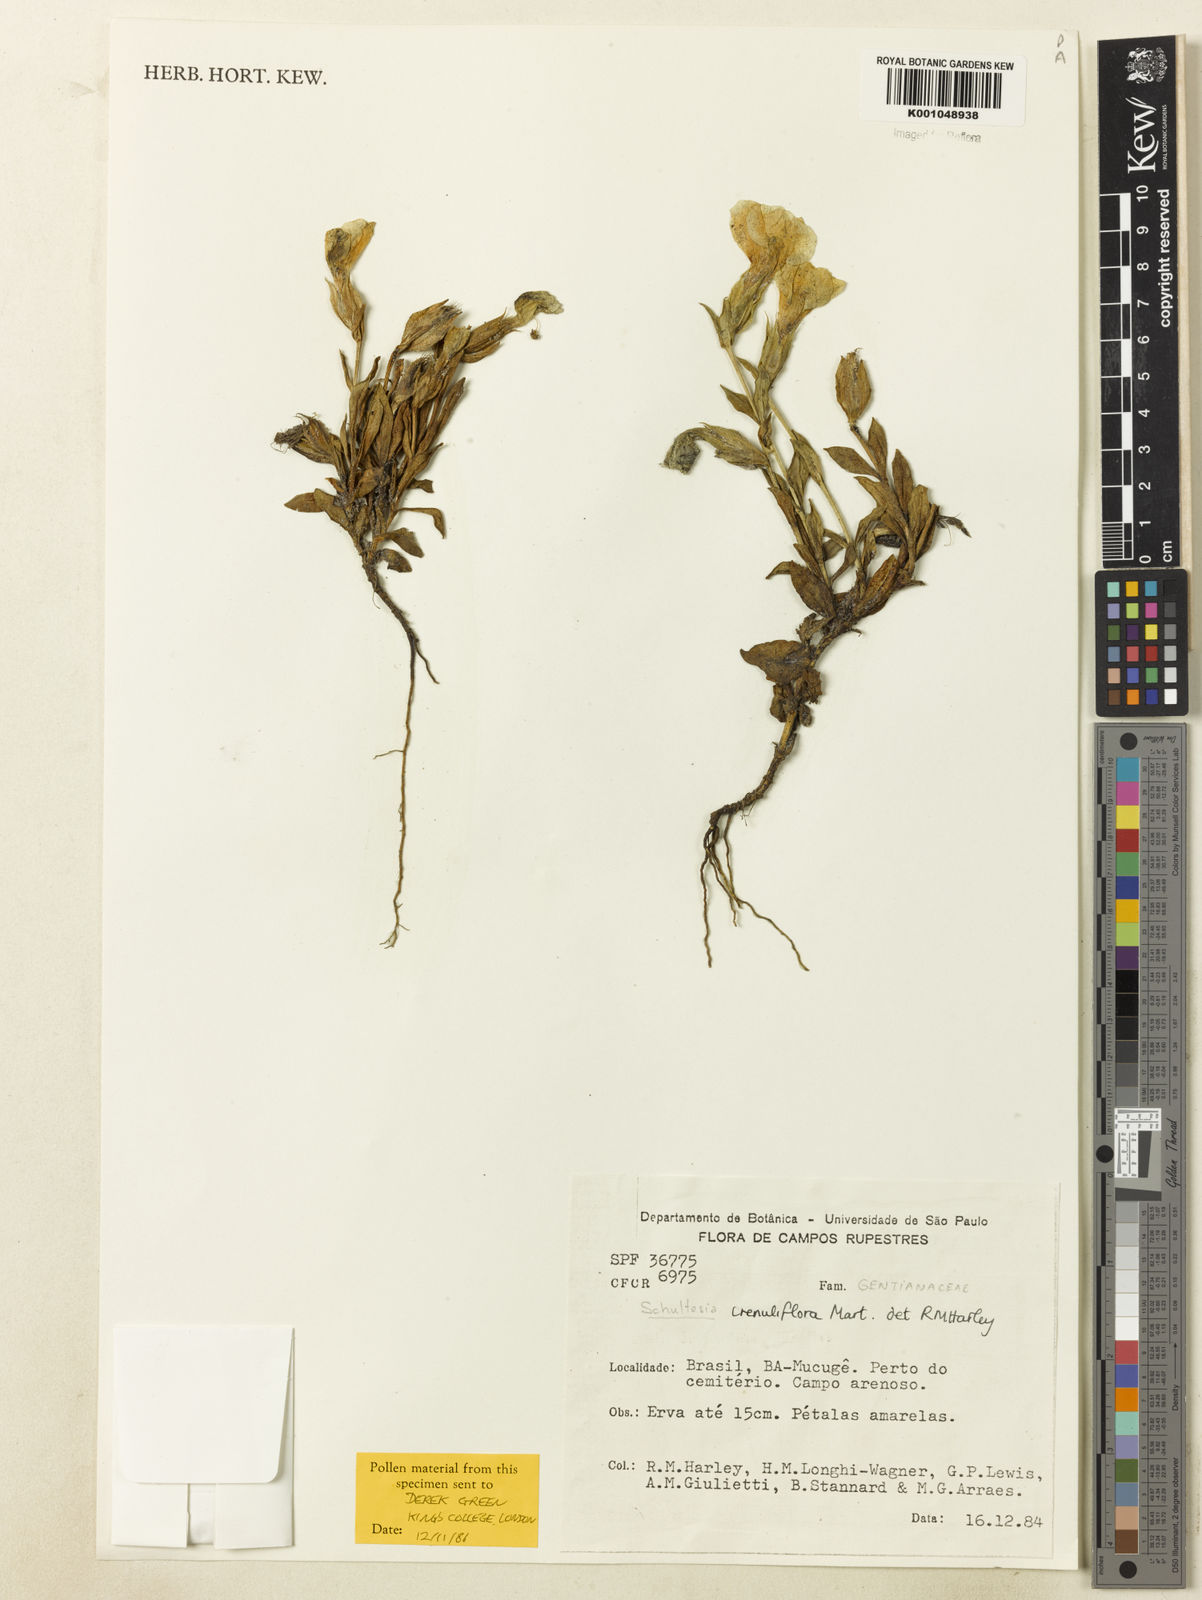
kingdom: Plantae
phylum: Tracheophyta
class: Magnoliopsida
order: Gentianales
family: Gentianaceae
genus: Schultesia
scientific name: Schultesia crenuliflora
